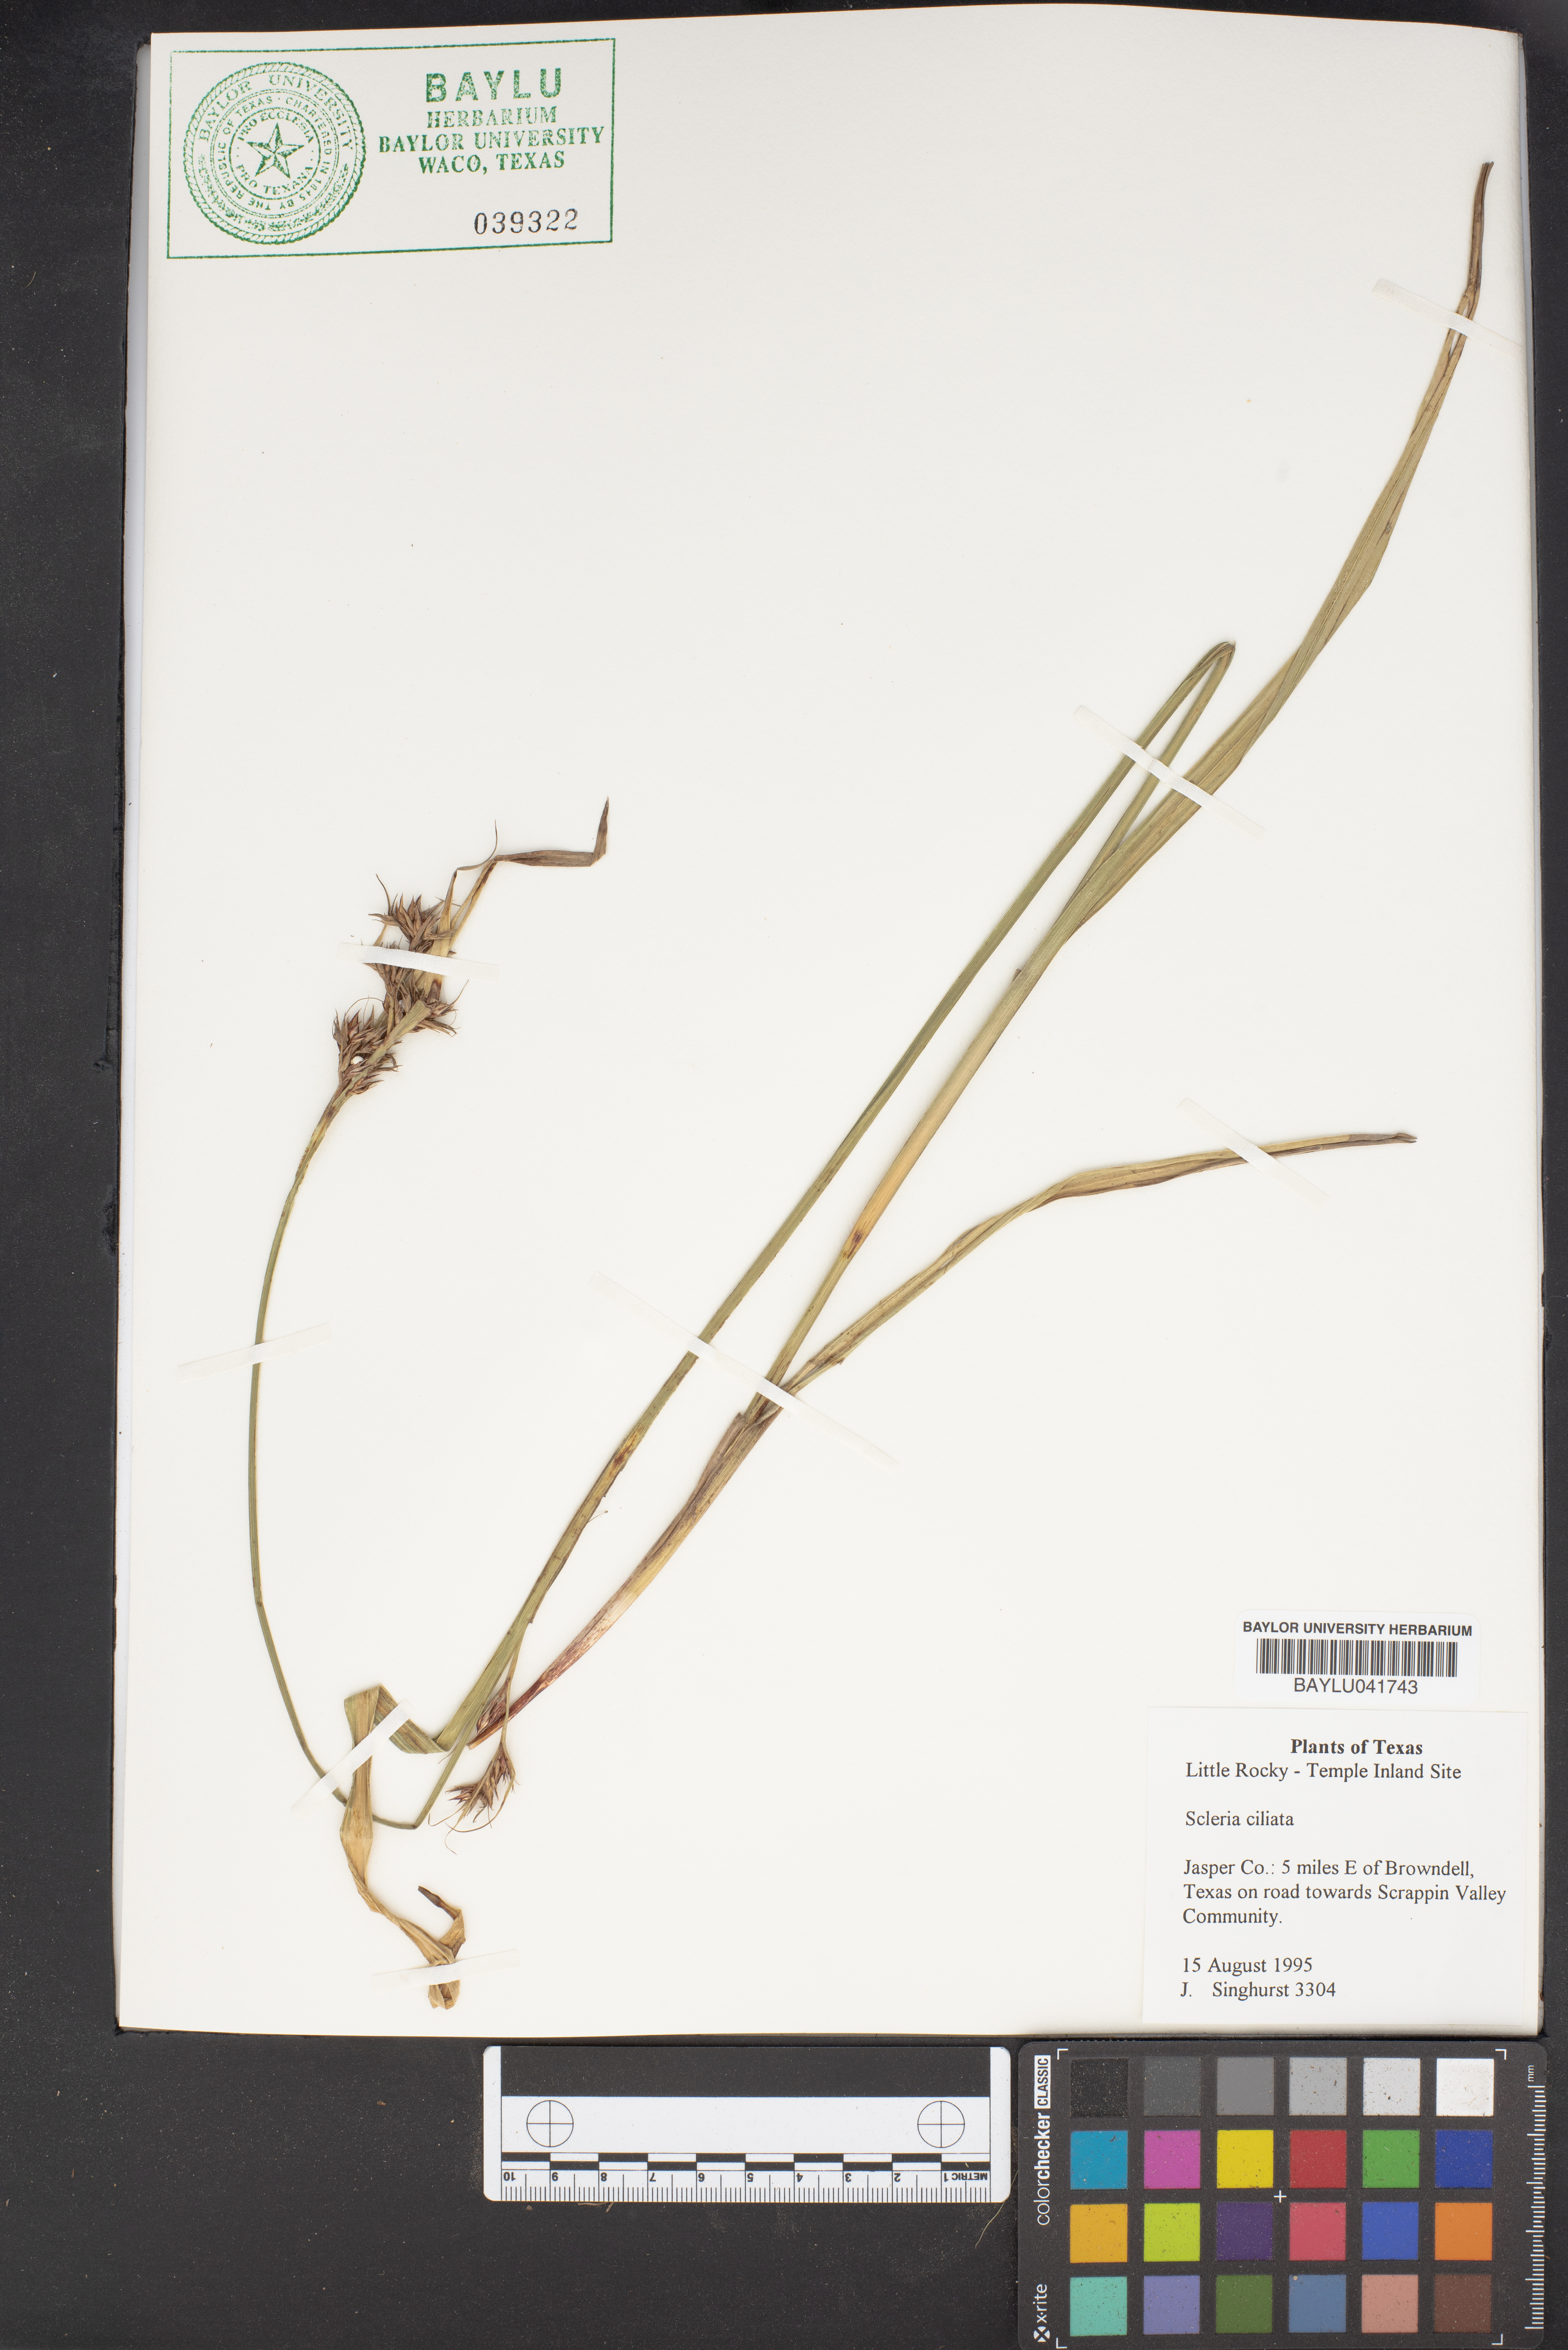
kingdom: Plantae
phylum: Tracheophyta
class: Liliopsida
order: Poales
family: Cyperaceae
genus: Scleria
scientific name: Scleria ciliata
